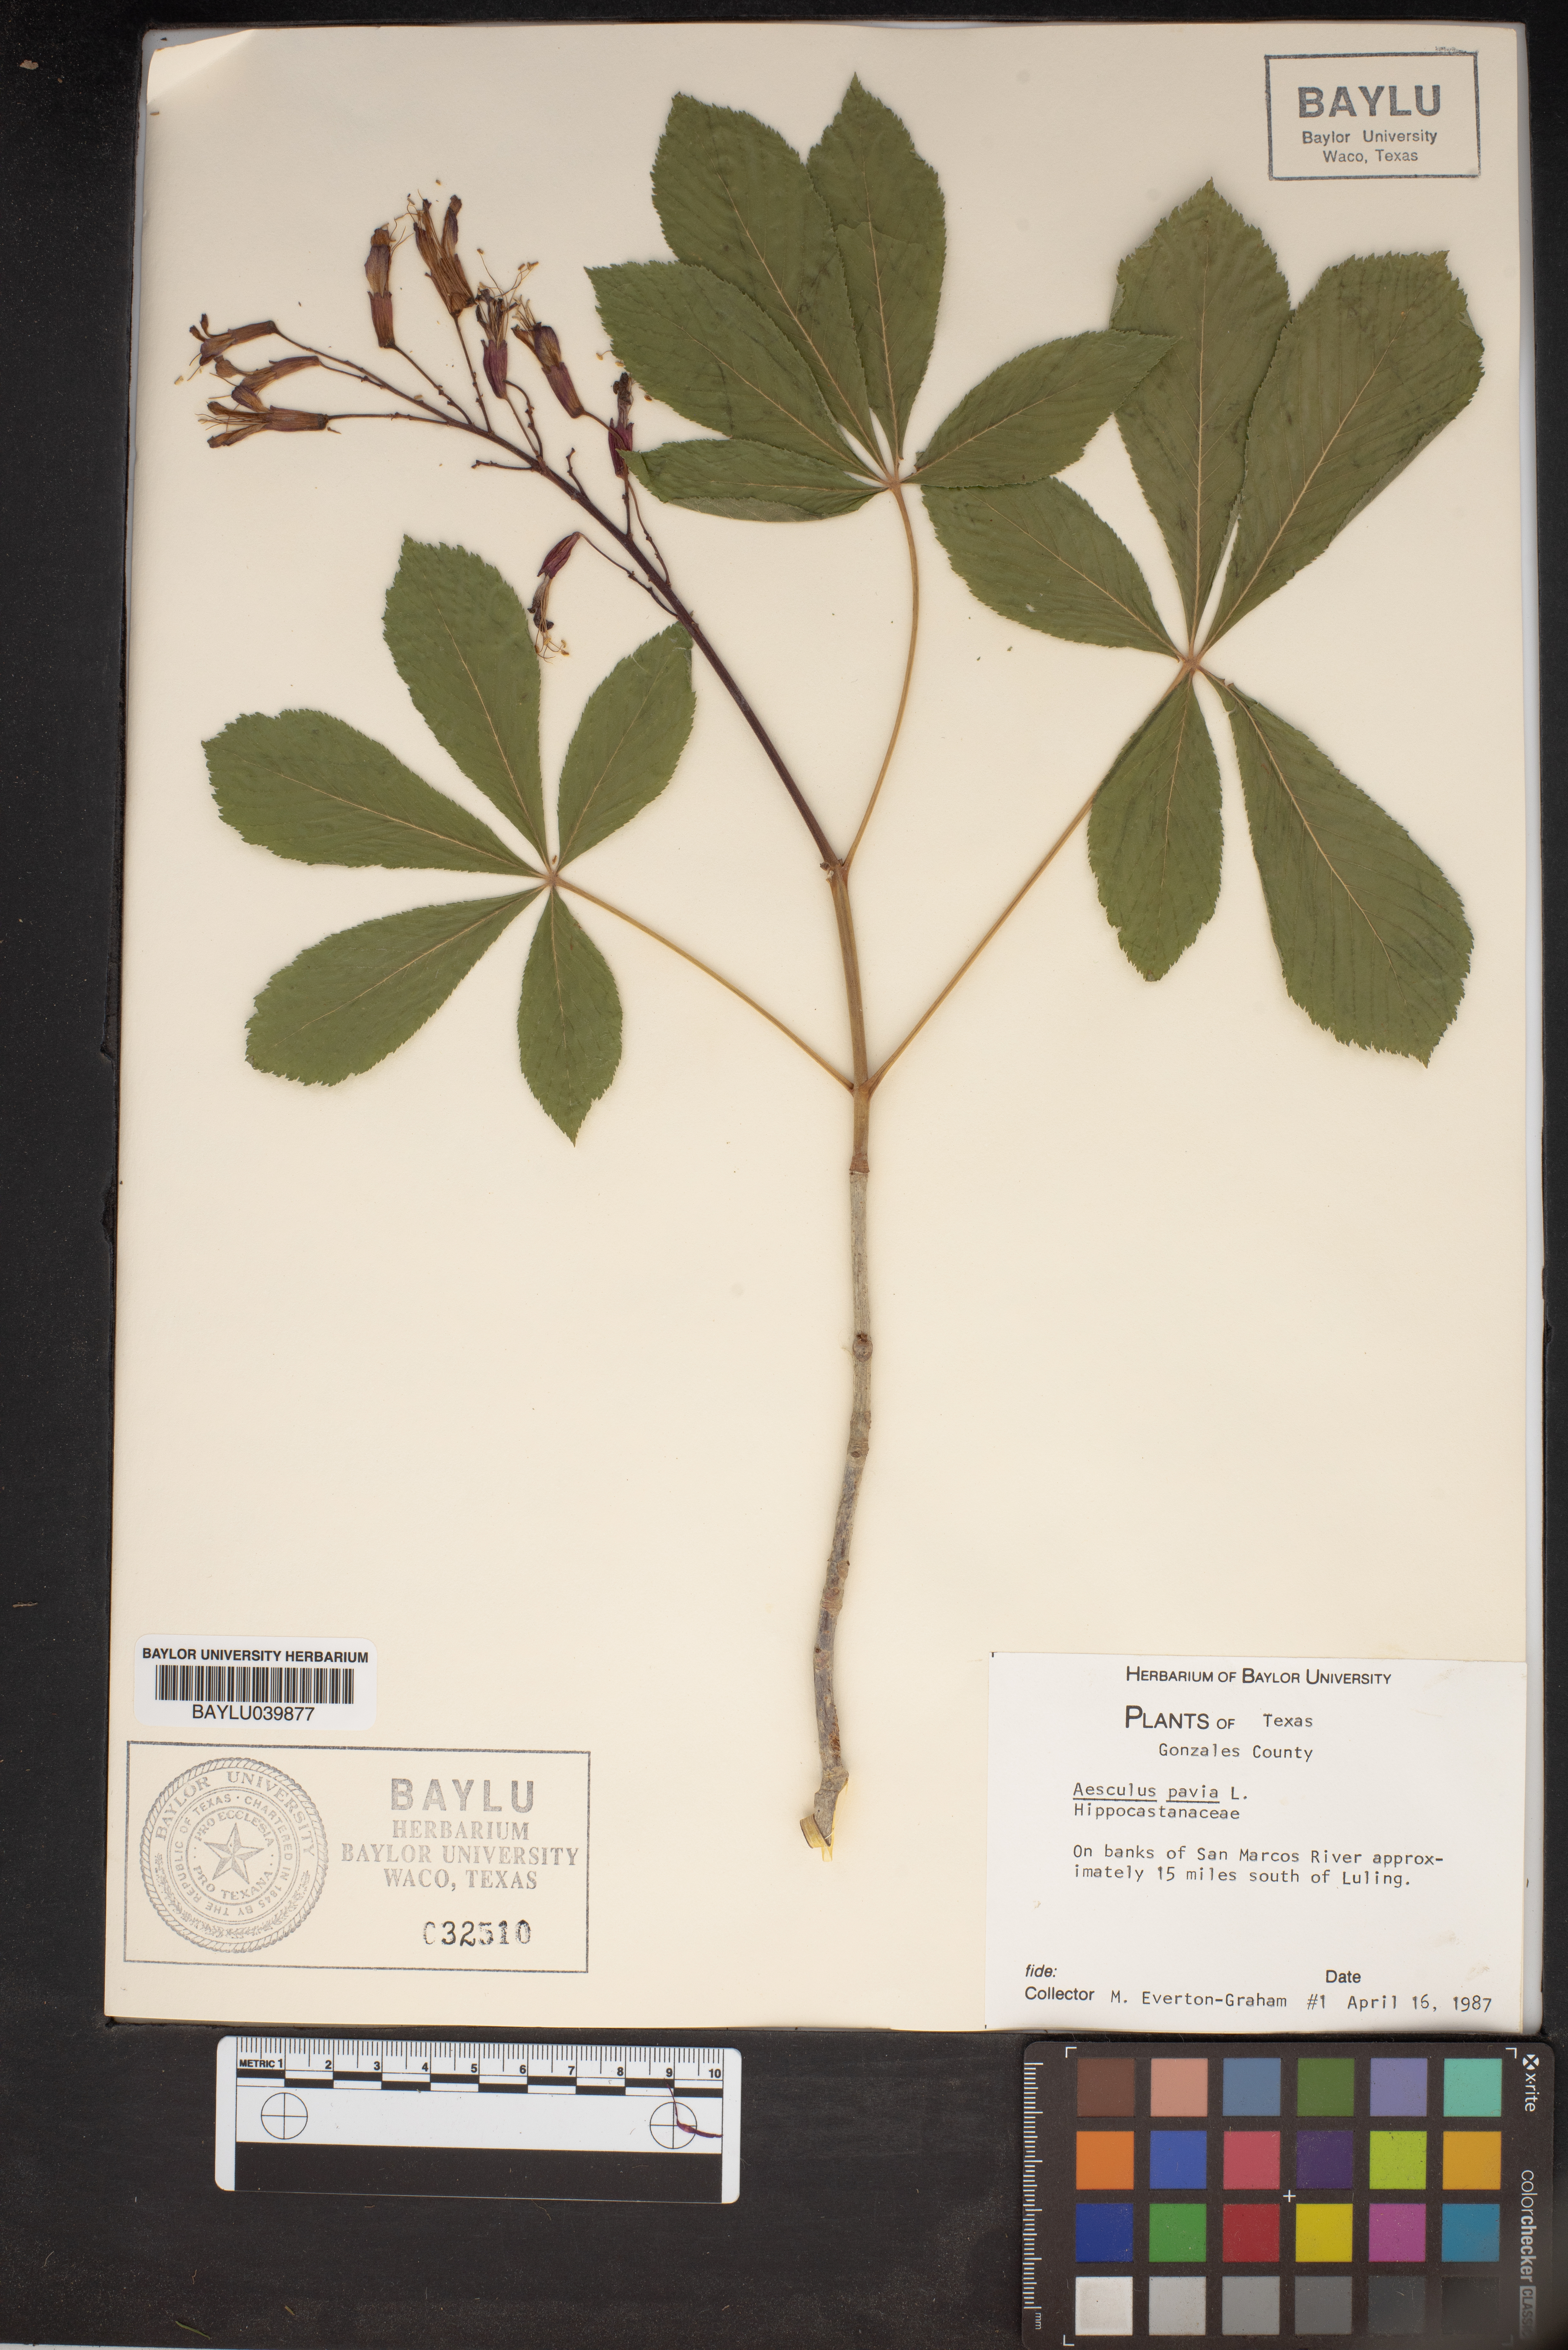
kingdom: Plantae
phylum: Tracheophyta
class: Magnoliopsida
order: Sapindales
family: Sapindaceae
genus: Aesculus
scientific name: Aesculus pavia
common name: Red buckeye
